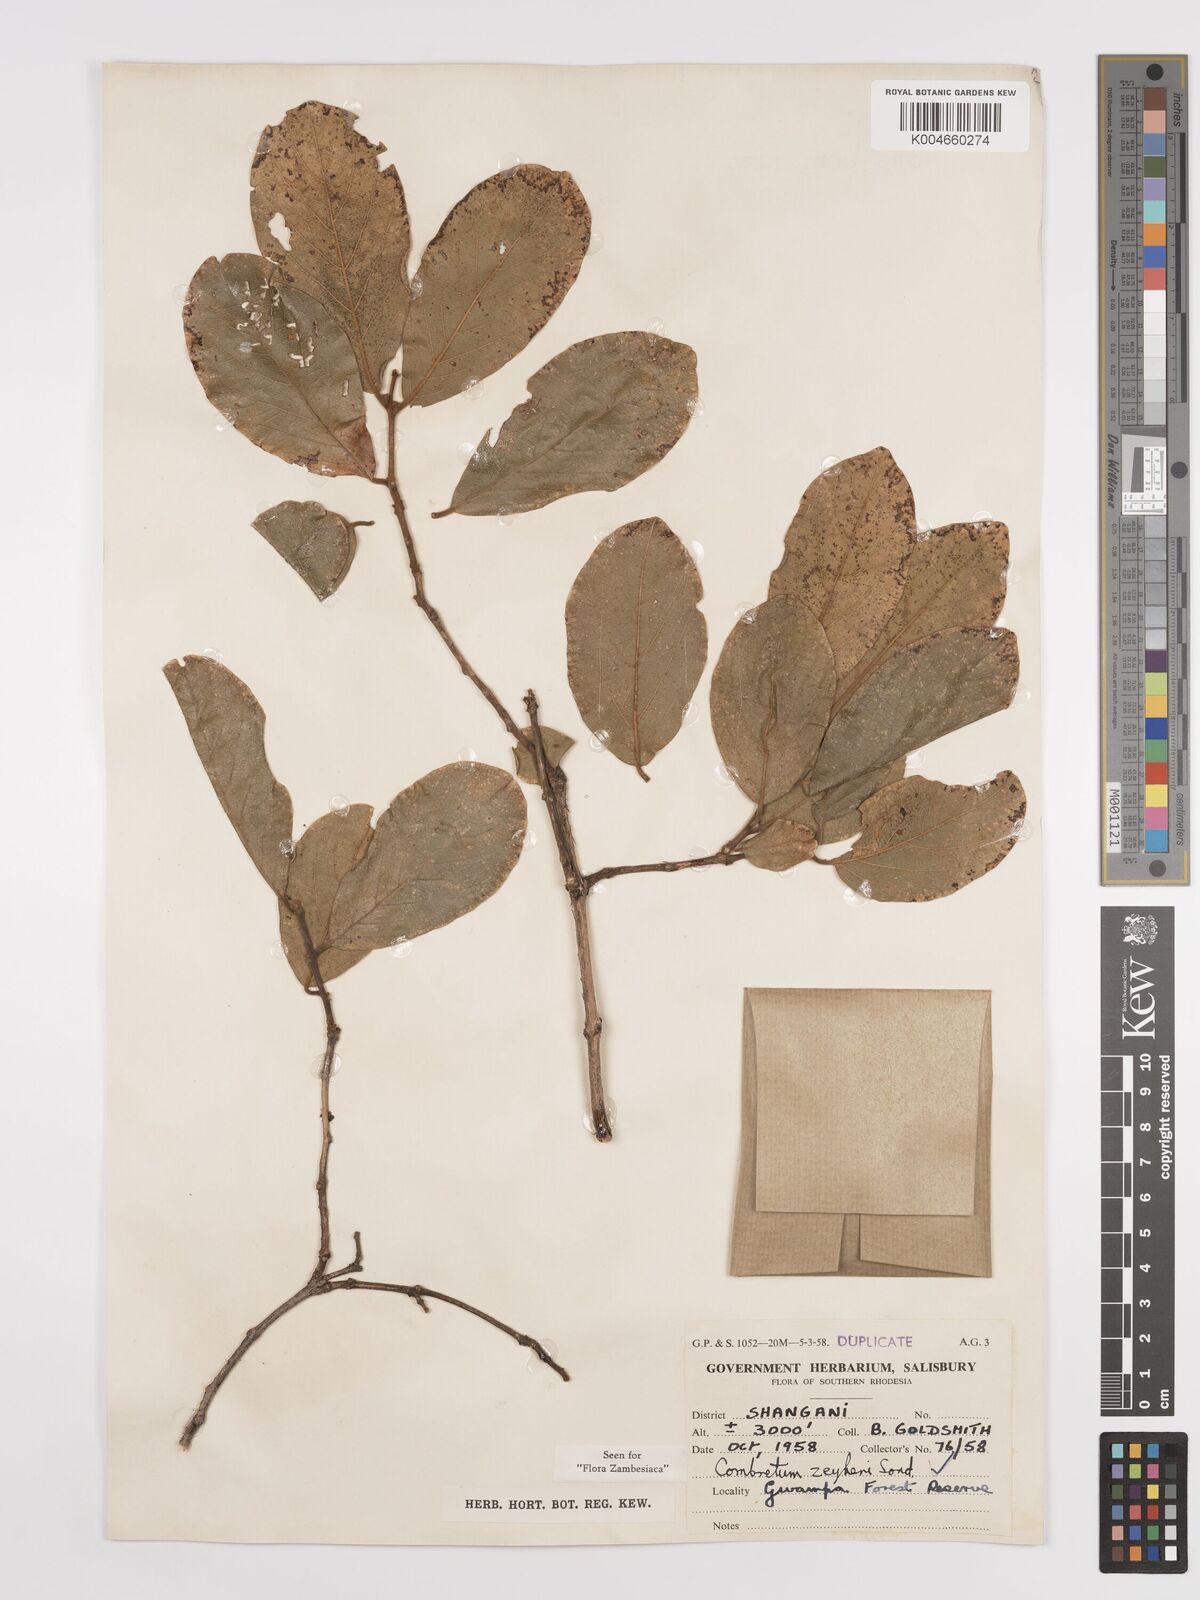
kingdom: Plantae
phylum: Tracheophyta
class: Magnoliopsida
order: Myrtales
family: Combretaceae
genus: Combretum
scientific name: Combretum zeyheri
